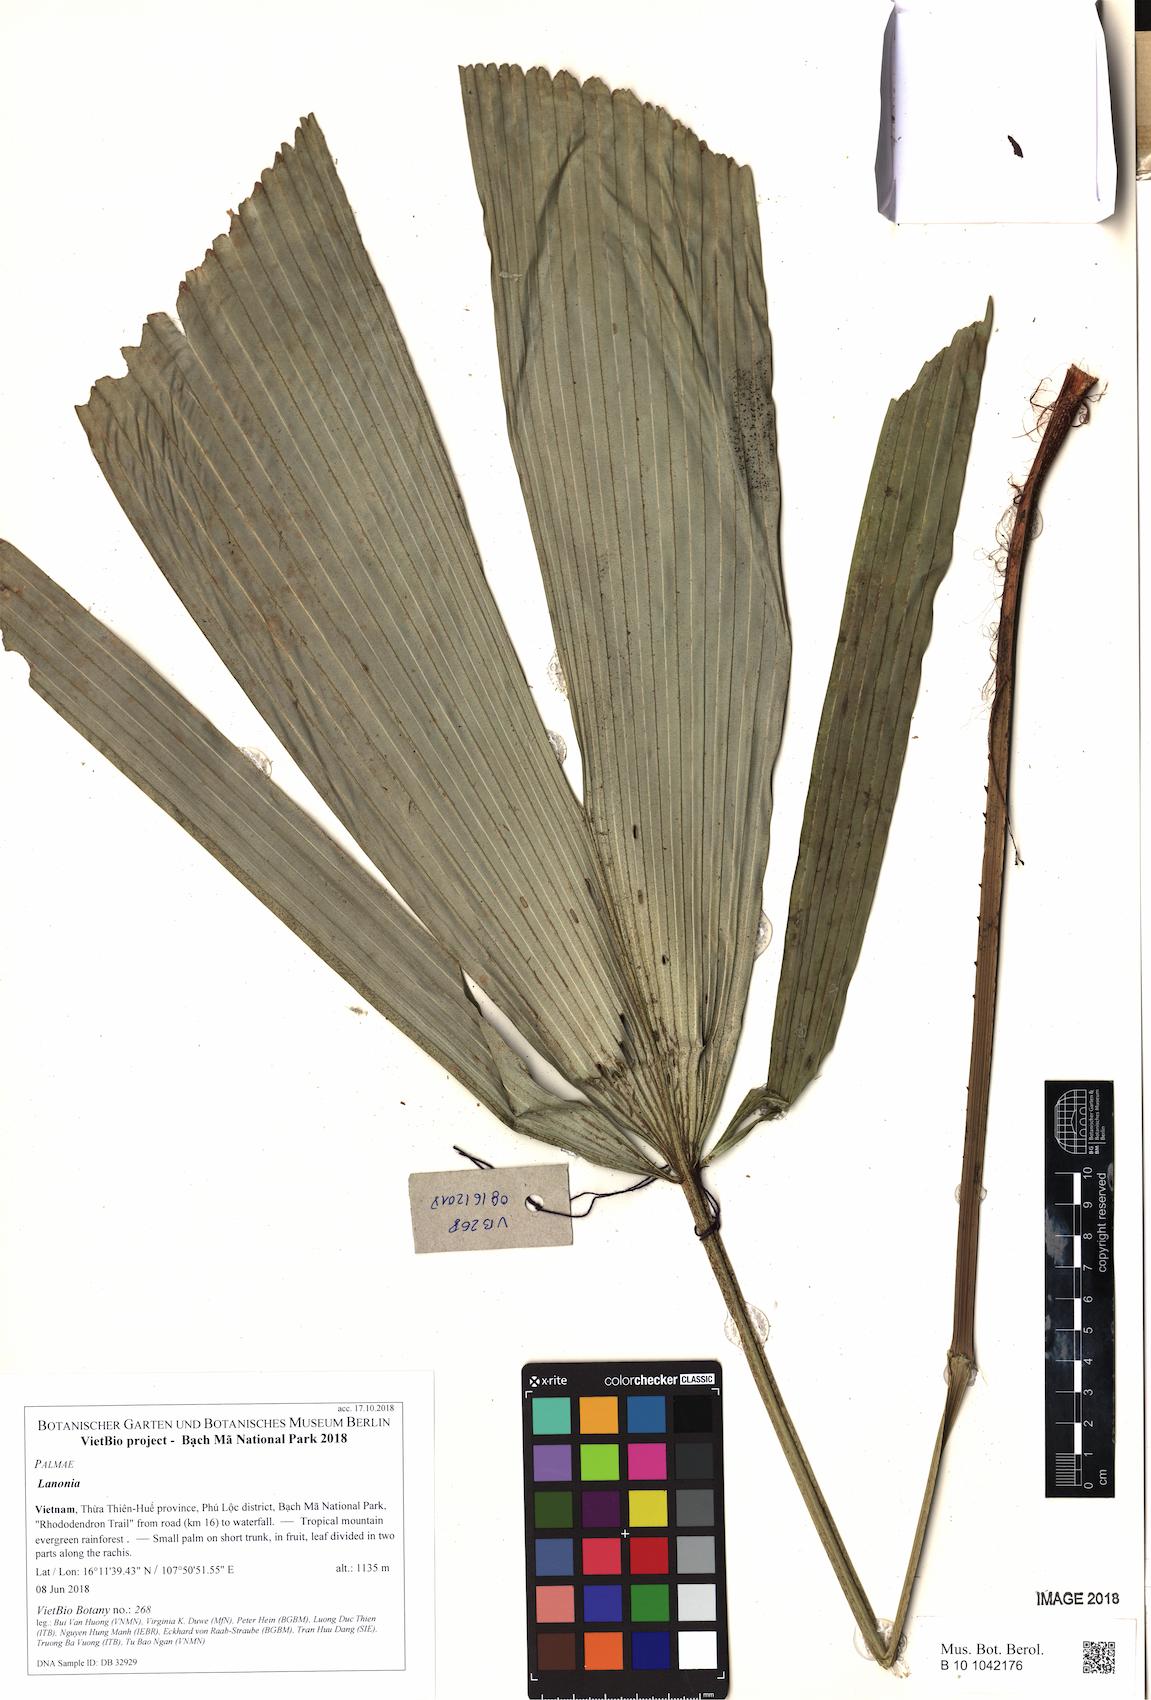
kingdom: Plantae
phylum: Tracheophyta
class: Liliopsida
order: Arecales
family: Arecaceae
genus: Lanonia
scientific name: Lanonia
